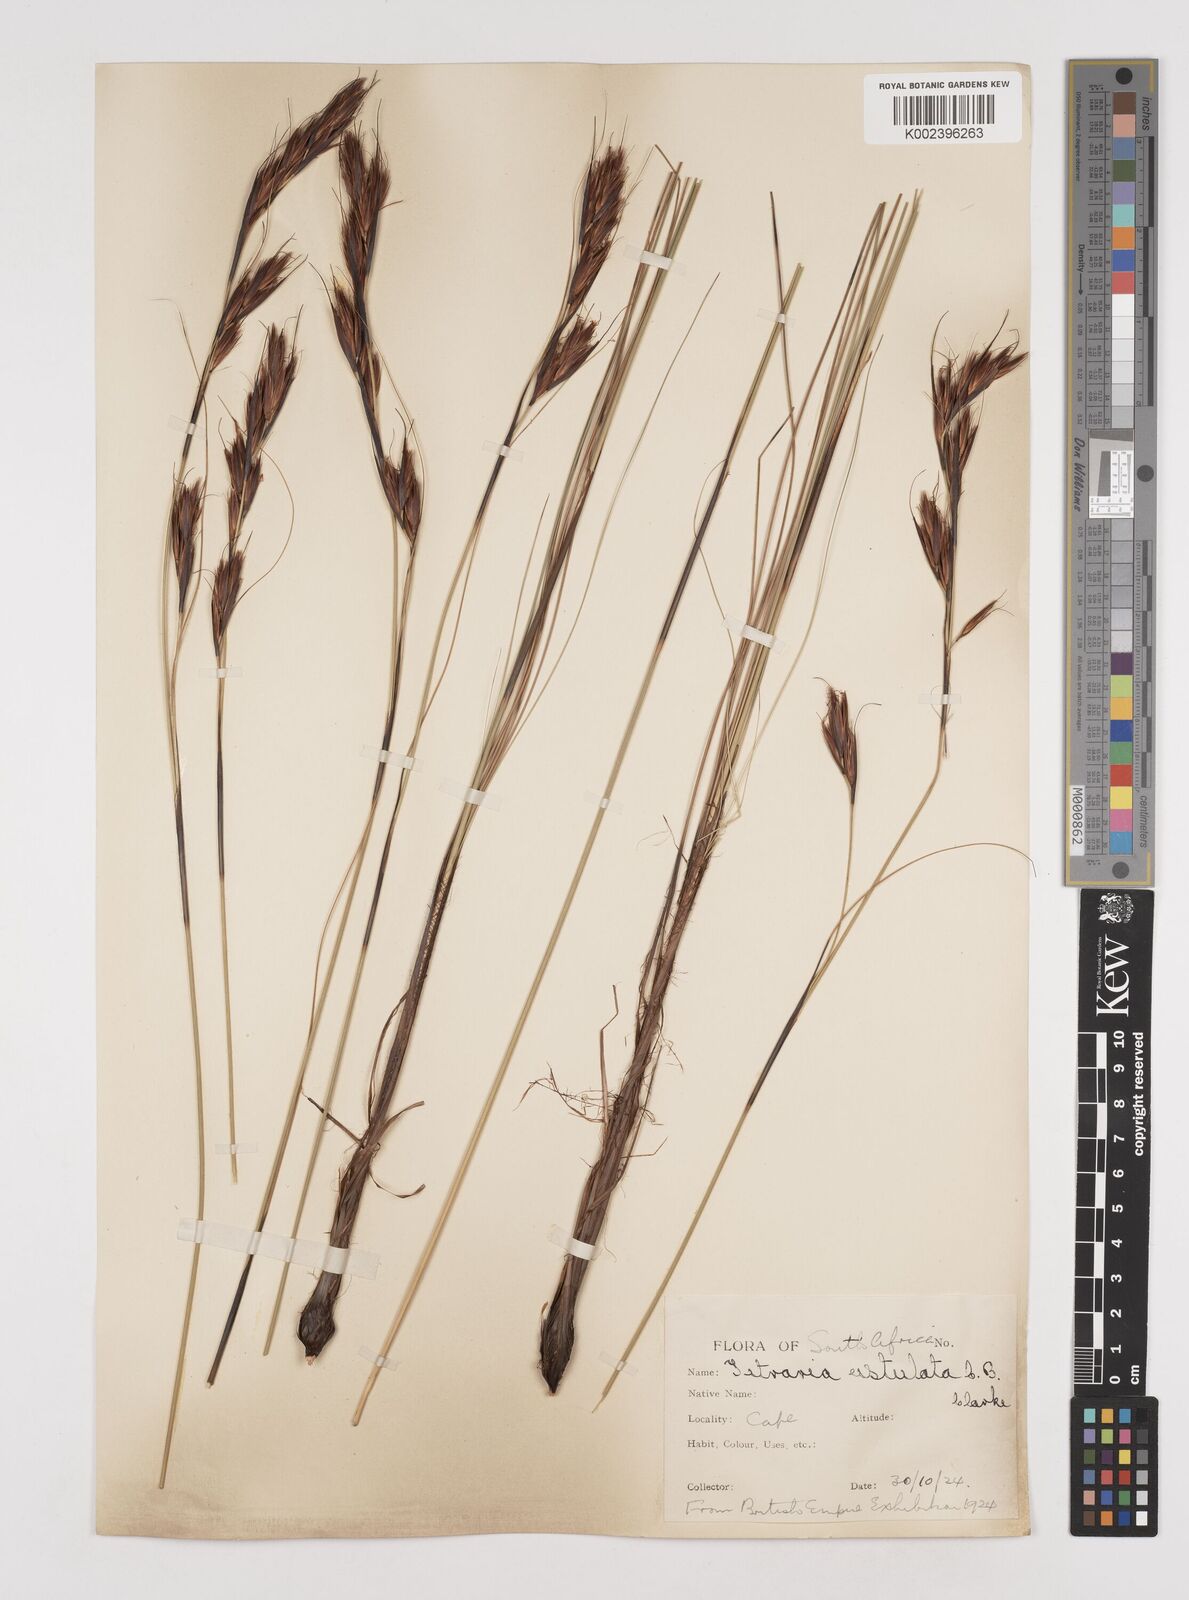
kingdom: Plantae
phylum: Tracheophyta
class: Liliopsida
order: Poales
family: Cyperaceae
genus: Tetraria
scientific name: Tetraria ustulata
